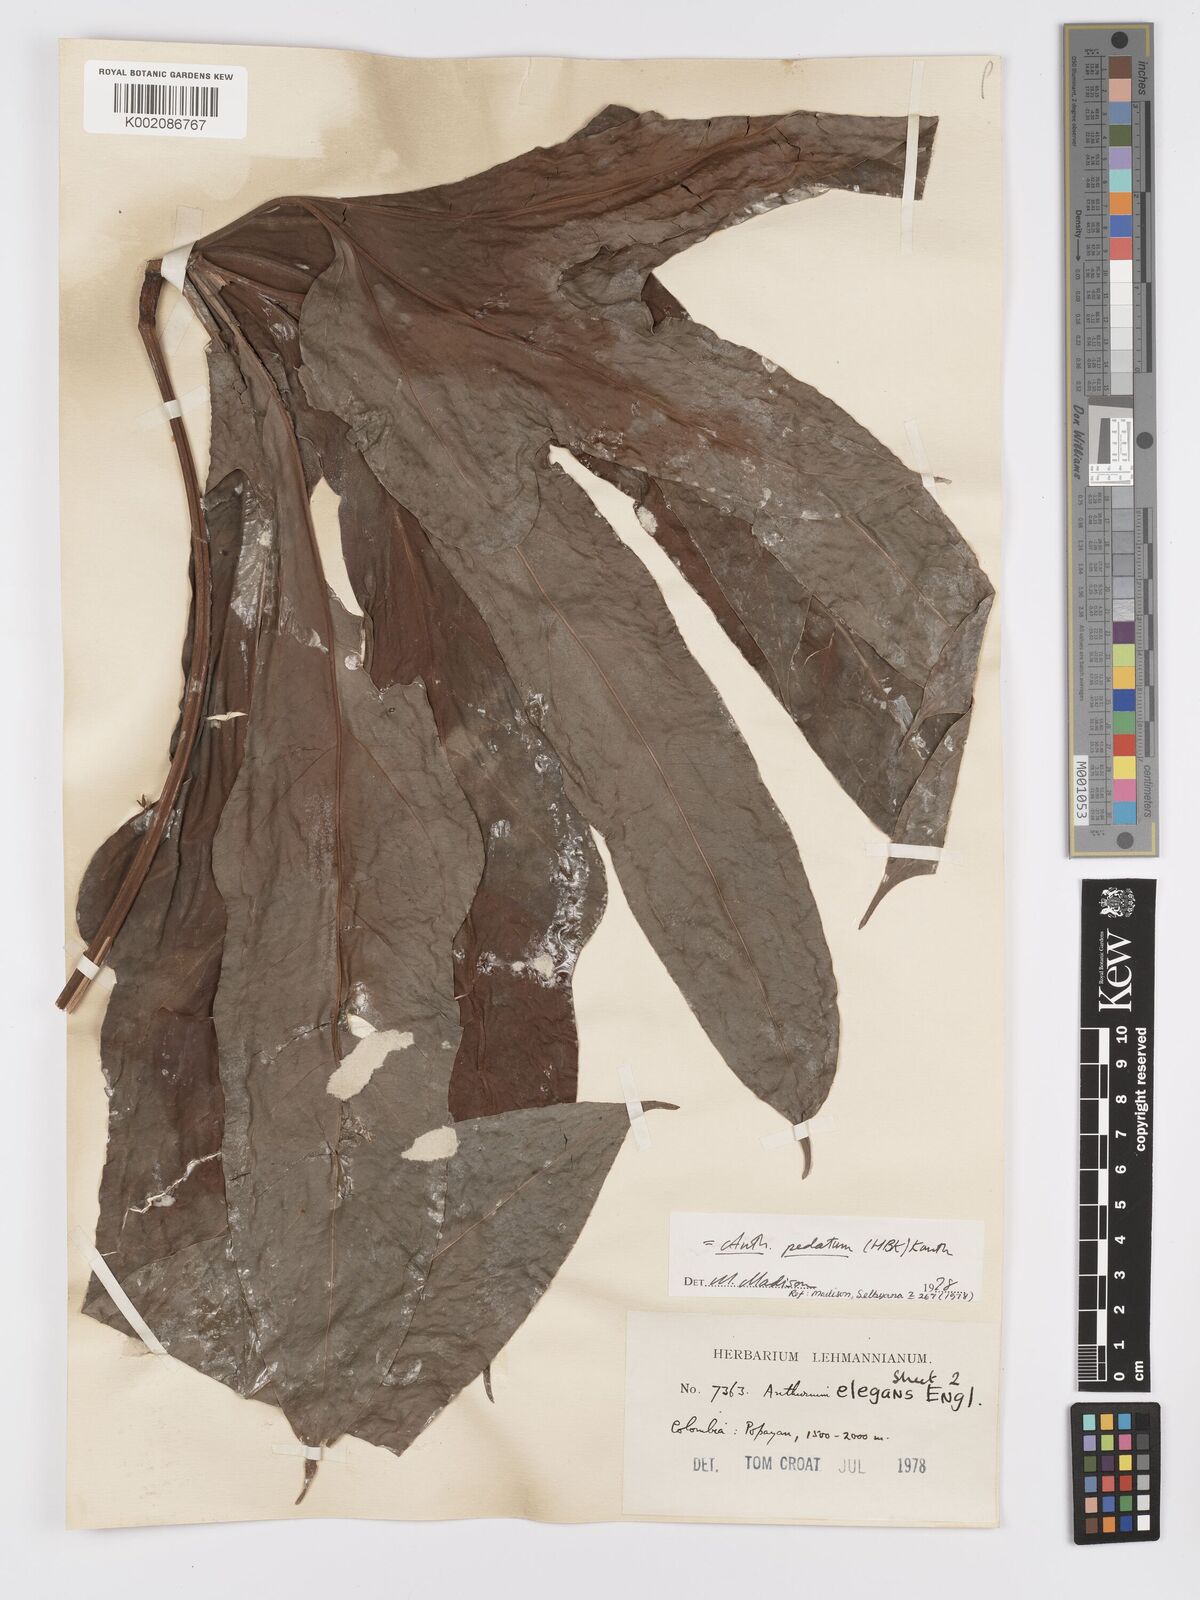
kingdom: Plantae
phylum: Tracheophyta
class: Liliopsida
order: Alismatales
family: Araceae
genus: Anthurium
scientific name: Anthurium pedatum
